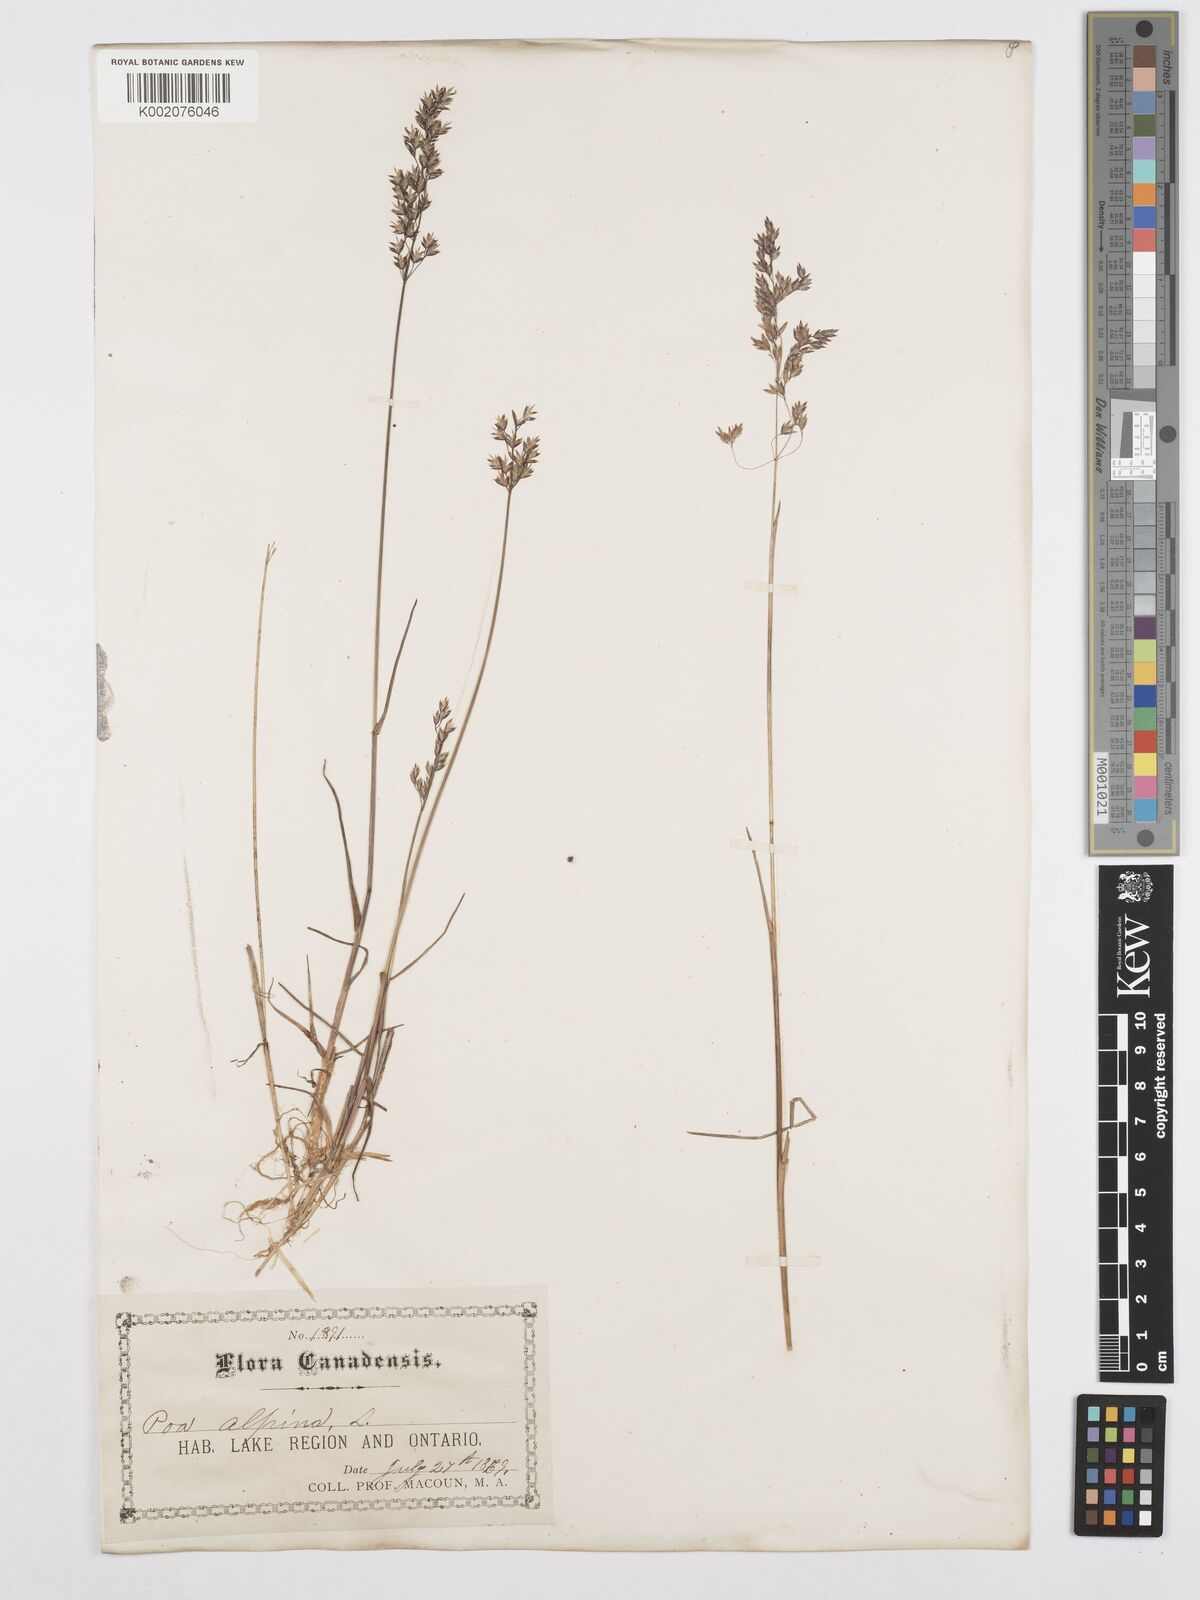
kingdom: Plantae
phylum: Tracheophyta
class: Liliopsida
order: Poales
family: Poaceae
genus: Poa
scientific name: Poa alpina
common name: Alpine bluegrass
